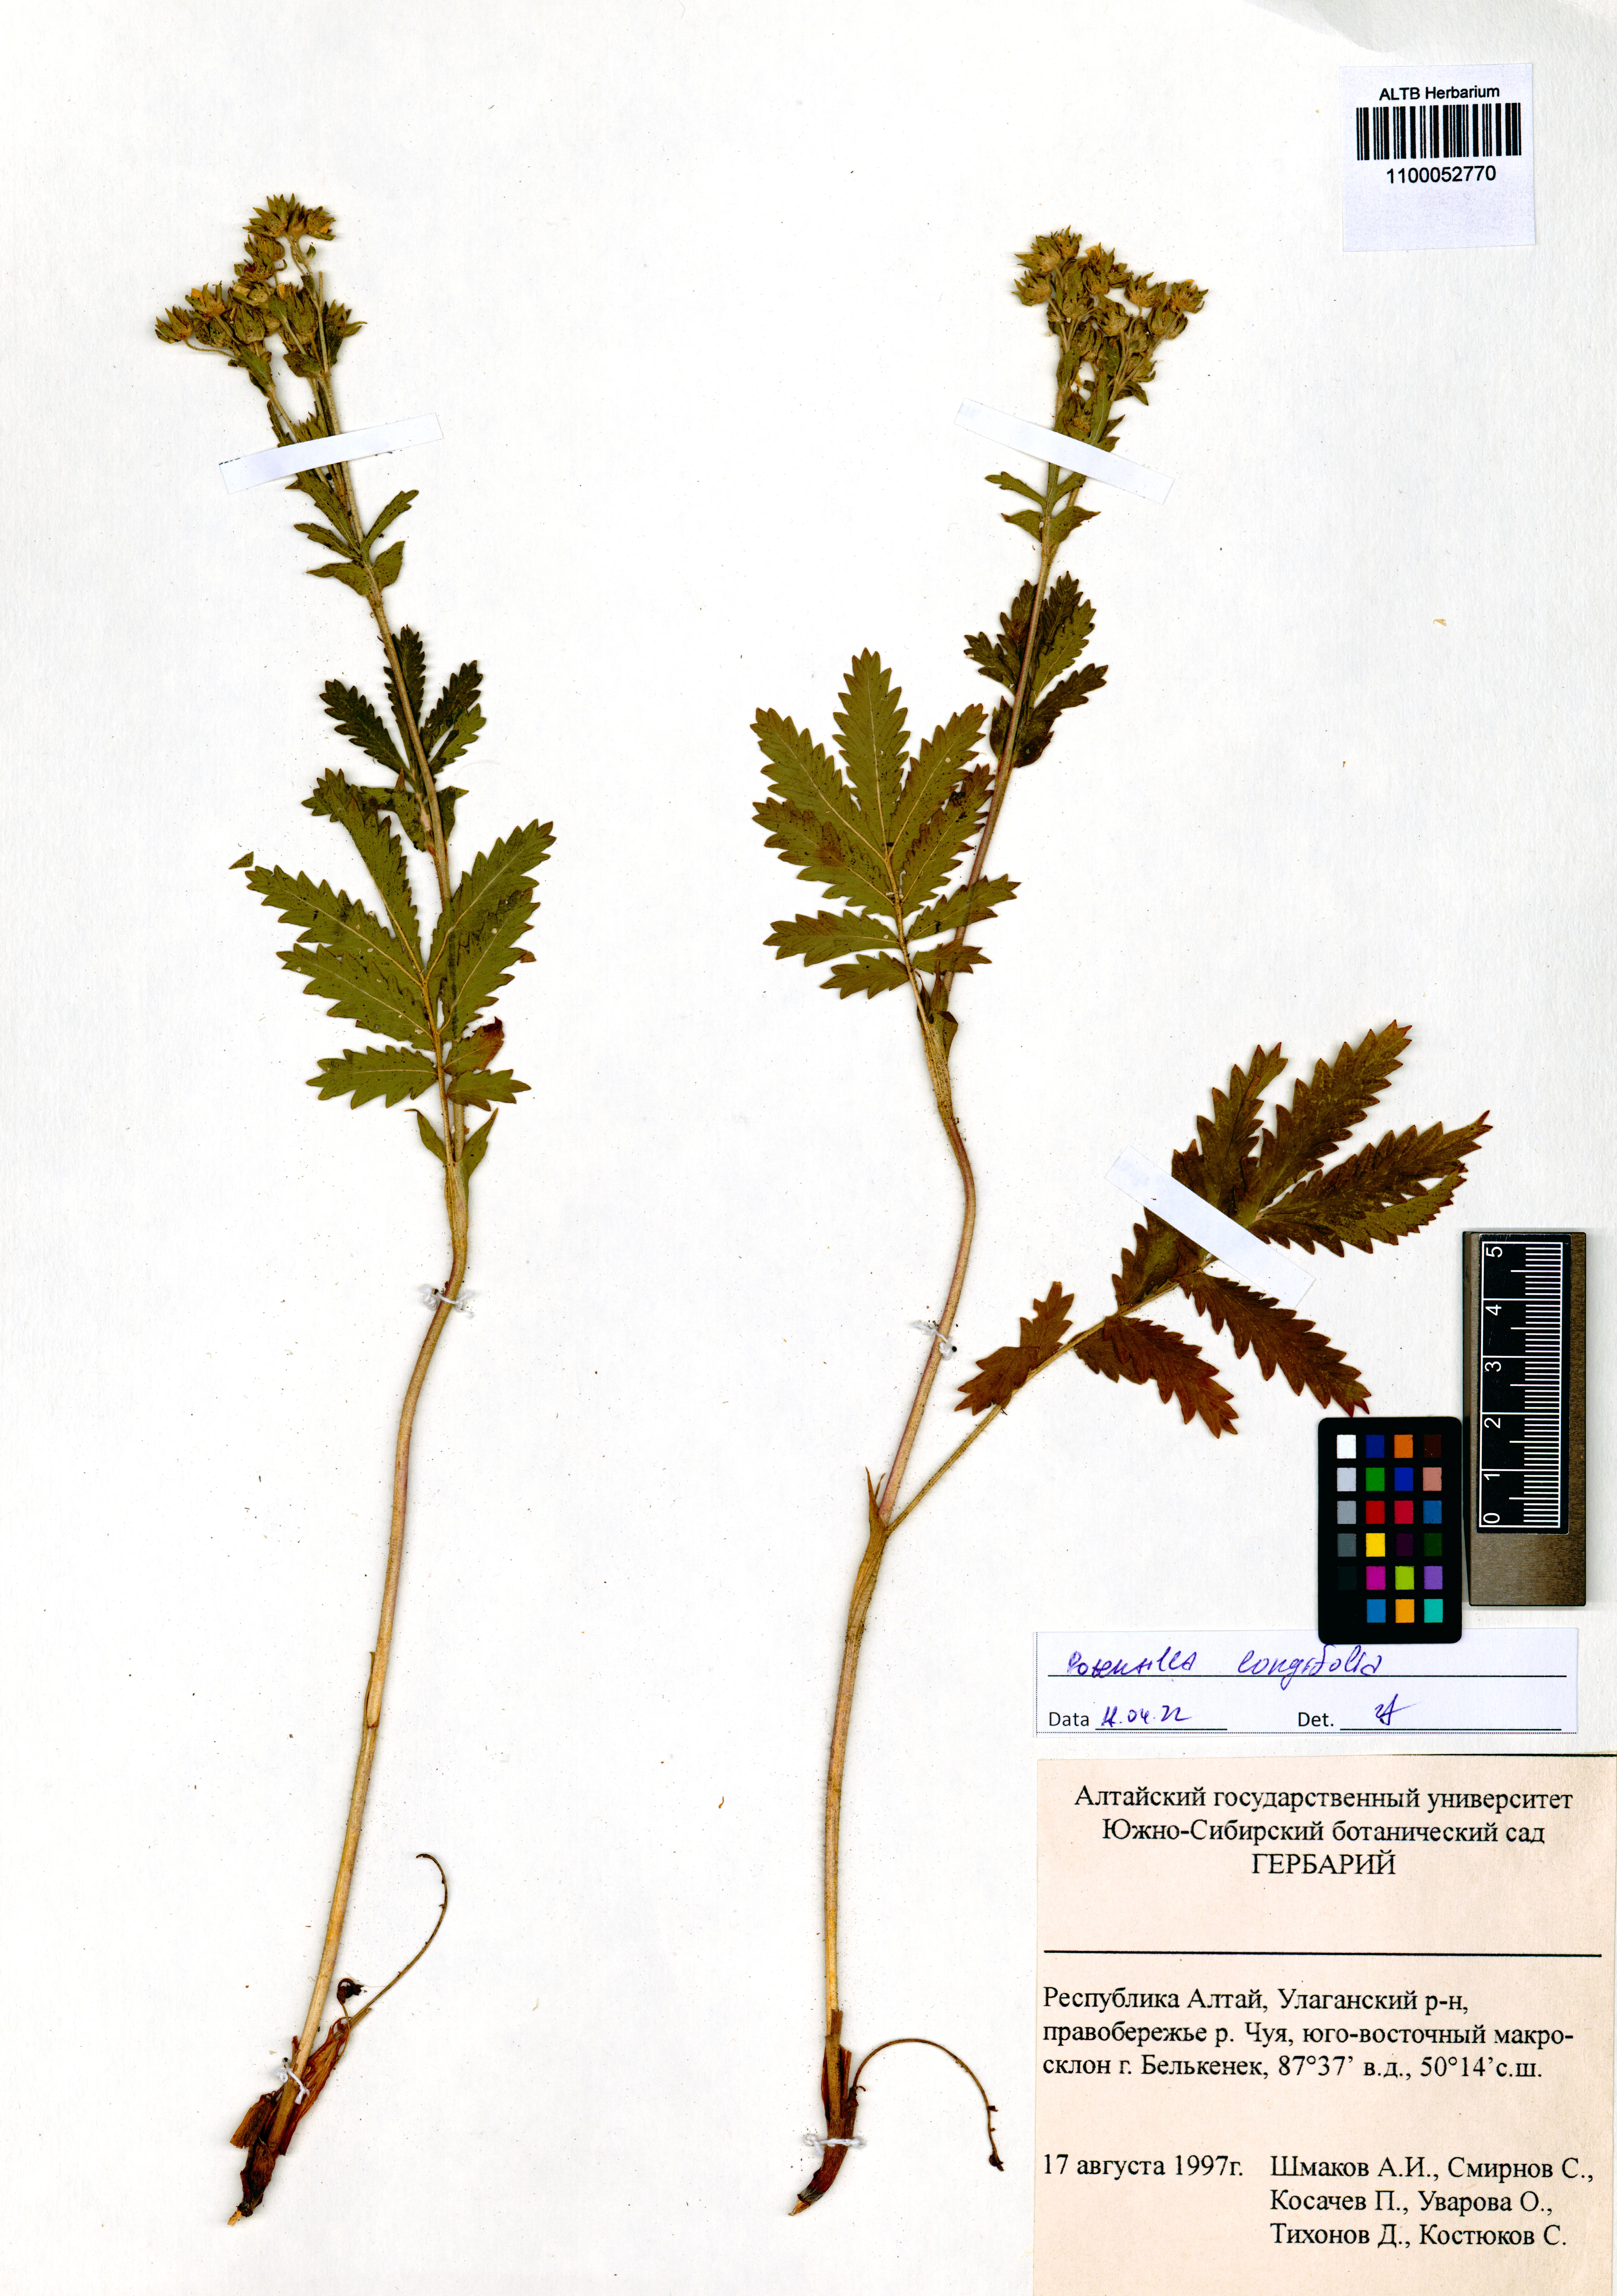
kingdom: Plantae
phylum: Tracheophyta
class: Magnoliopsida
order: Rosales
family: Rosaceae
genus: Potentilla
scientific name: Potentilla longifolia
